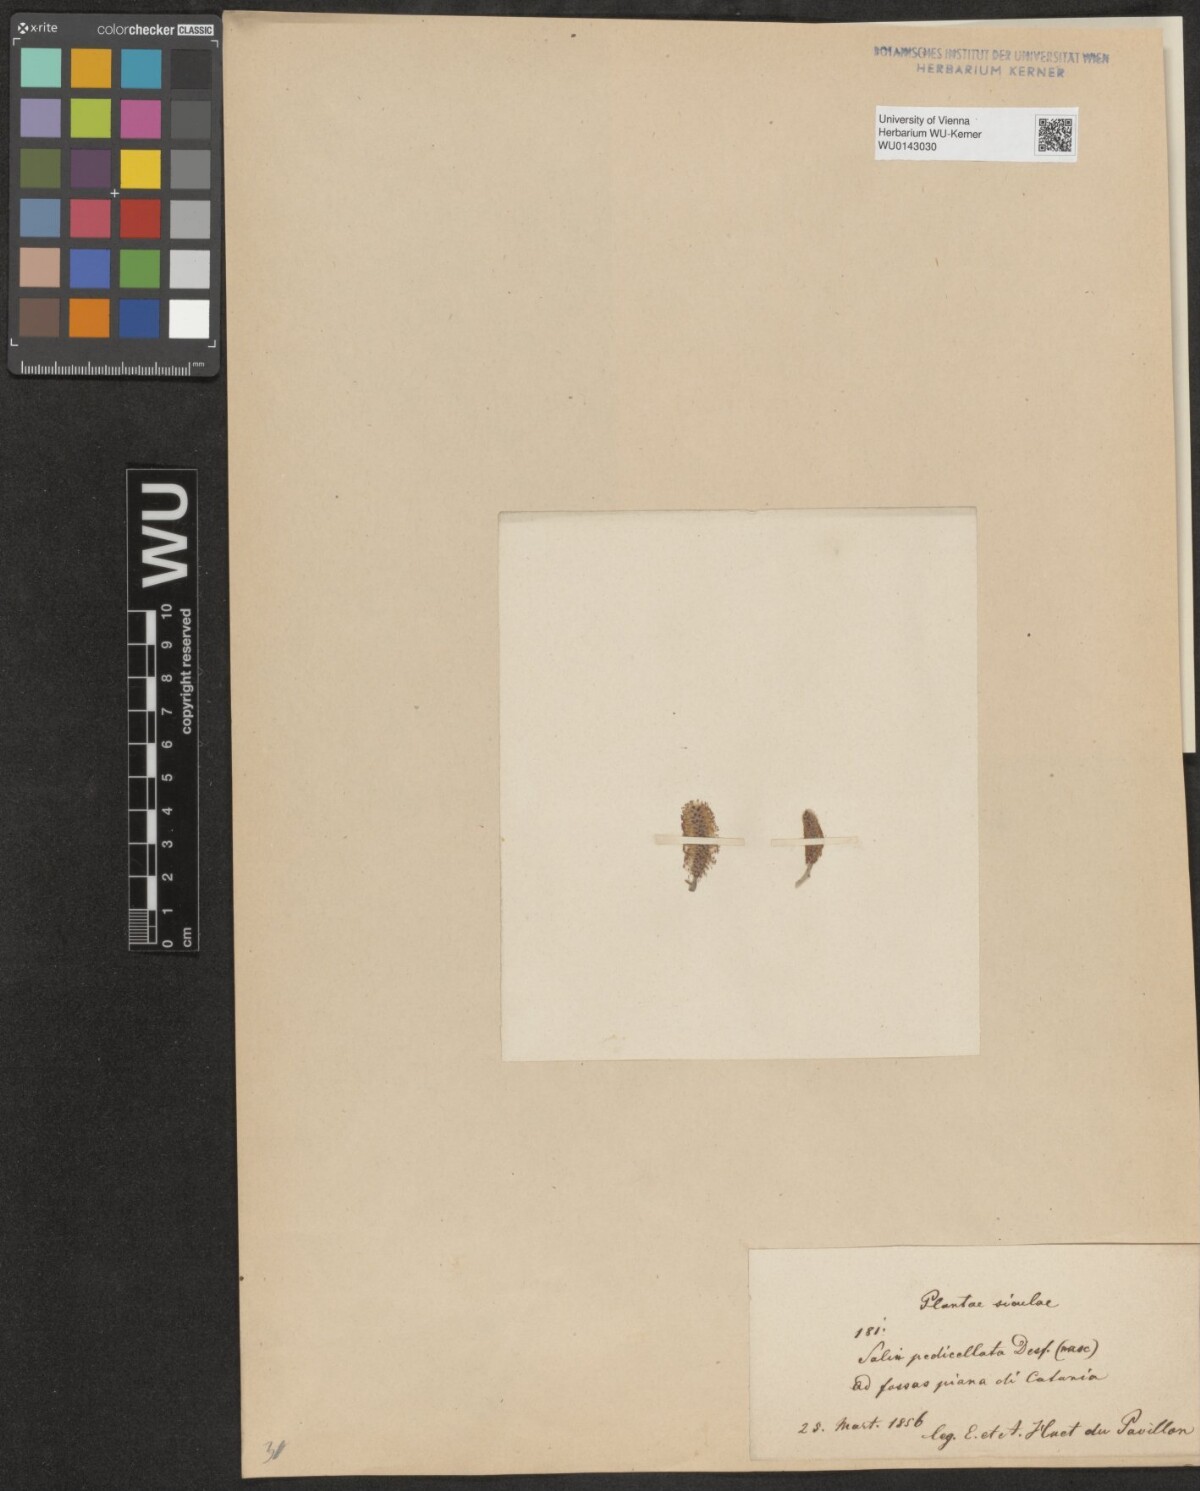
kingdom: Plantae
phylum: Tracheophyta
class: Magnoliopsida
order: Malpighiales
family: Salicaceae
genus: Salix
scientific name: Salix pedicellata
